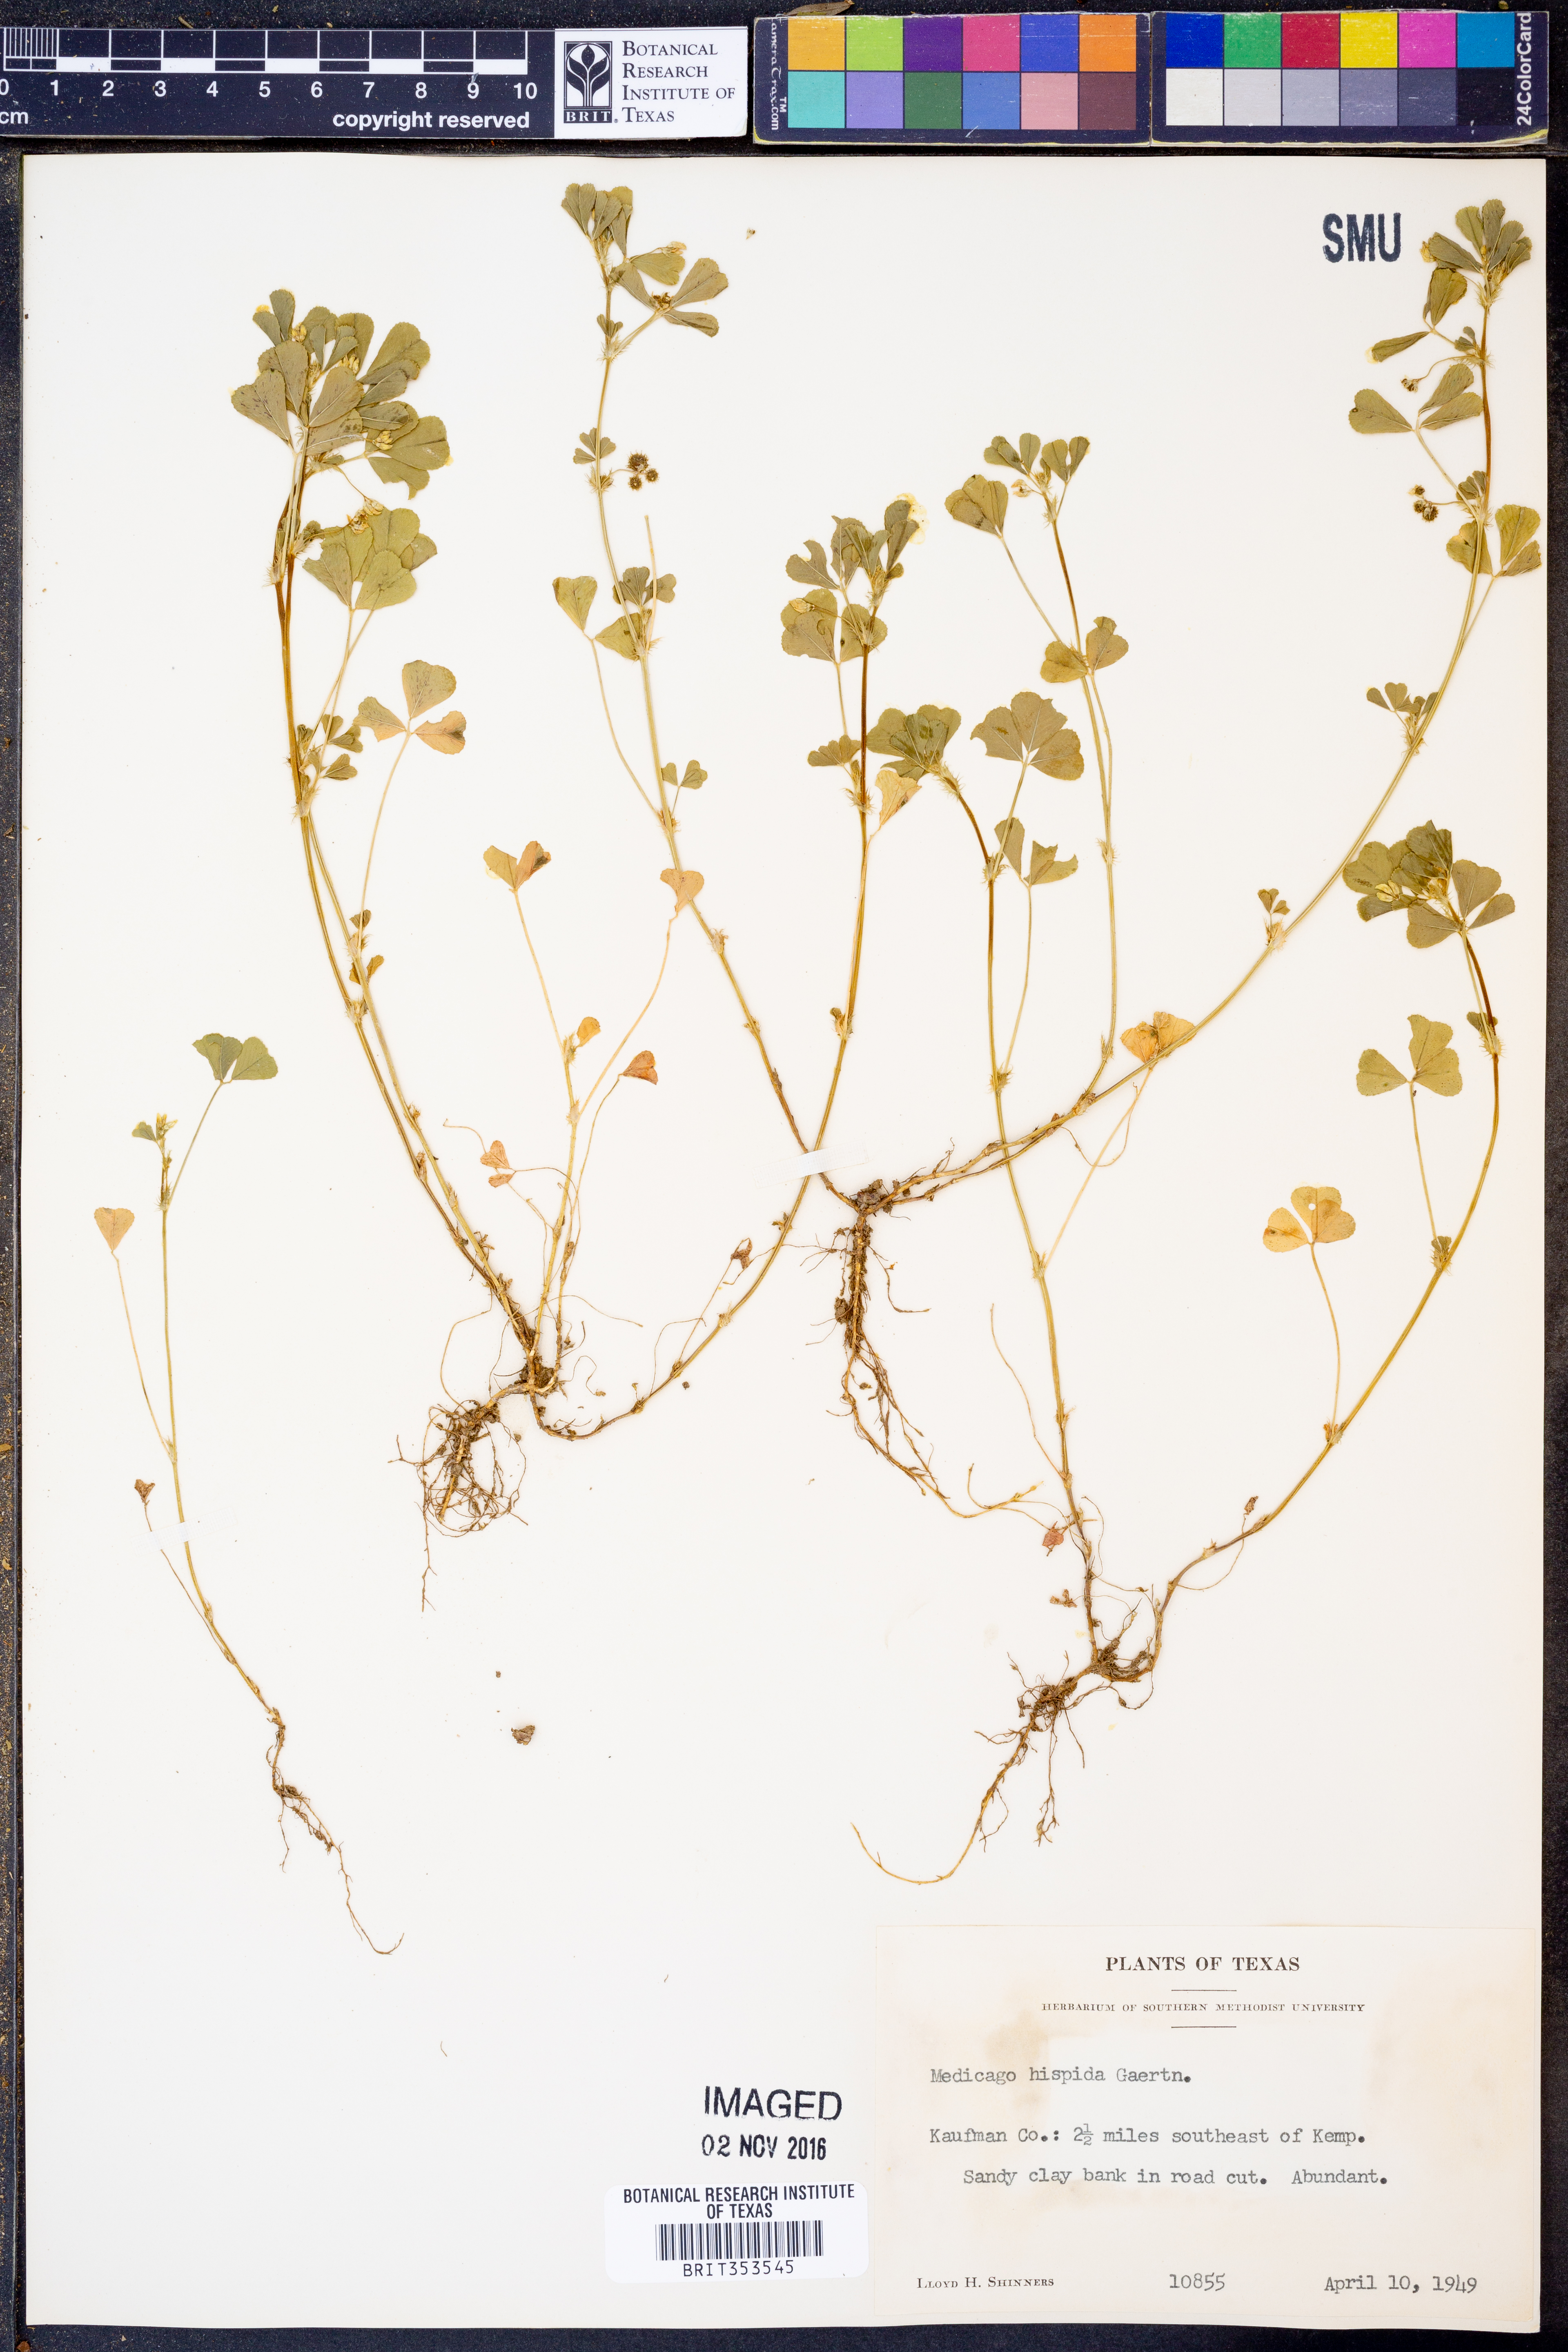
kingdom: Plantae
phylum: Tracheophyta
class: Magnoliopsida
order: Fabales
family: Fabaceae
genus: Medicago
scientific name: Medicago polymorpha
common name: Burclover
